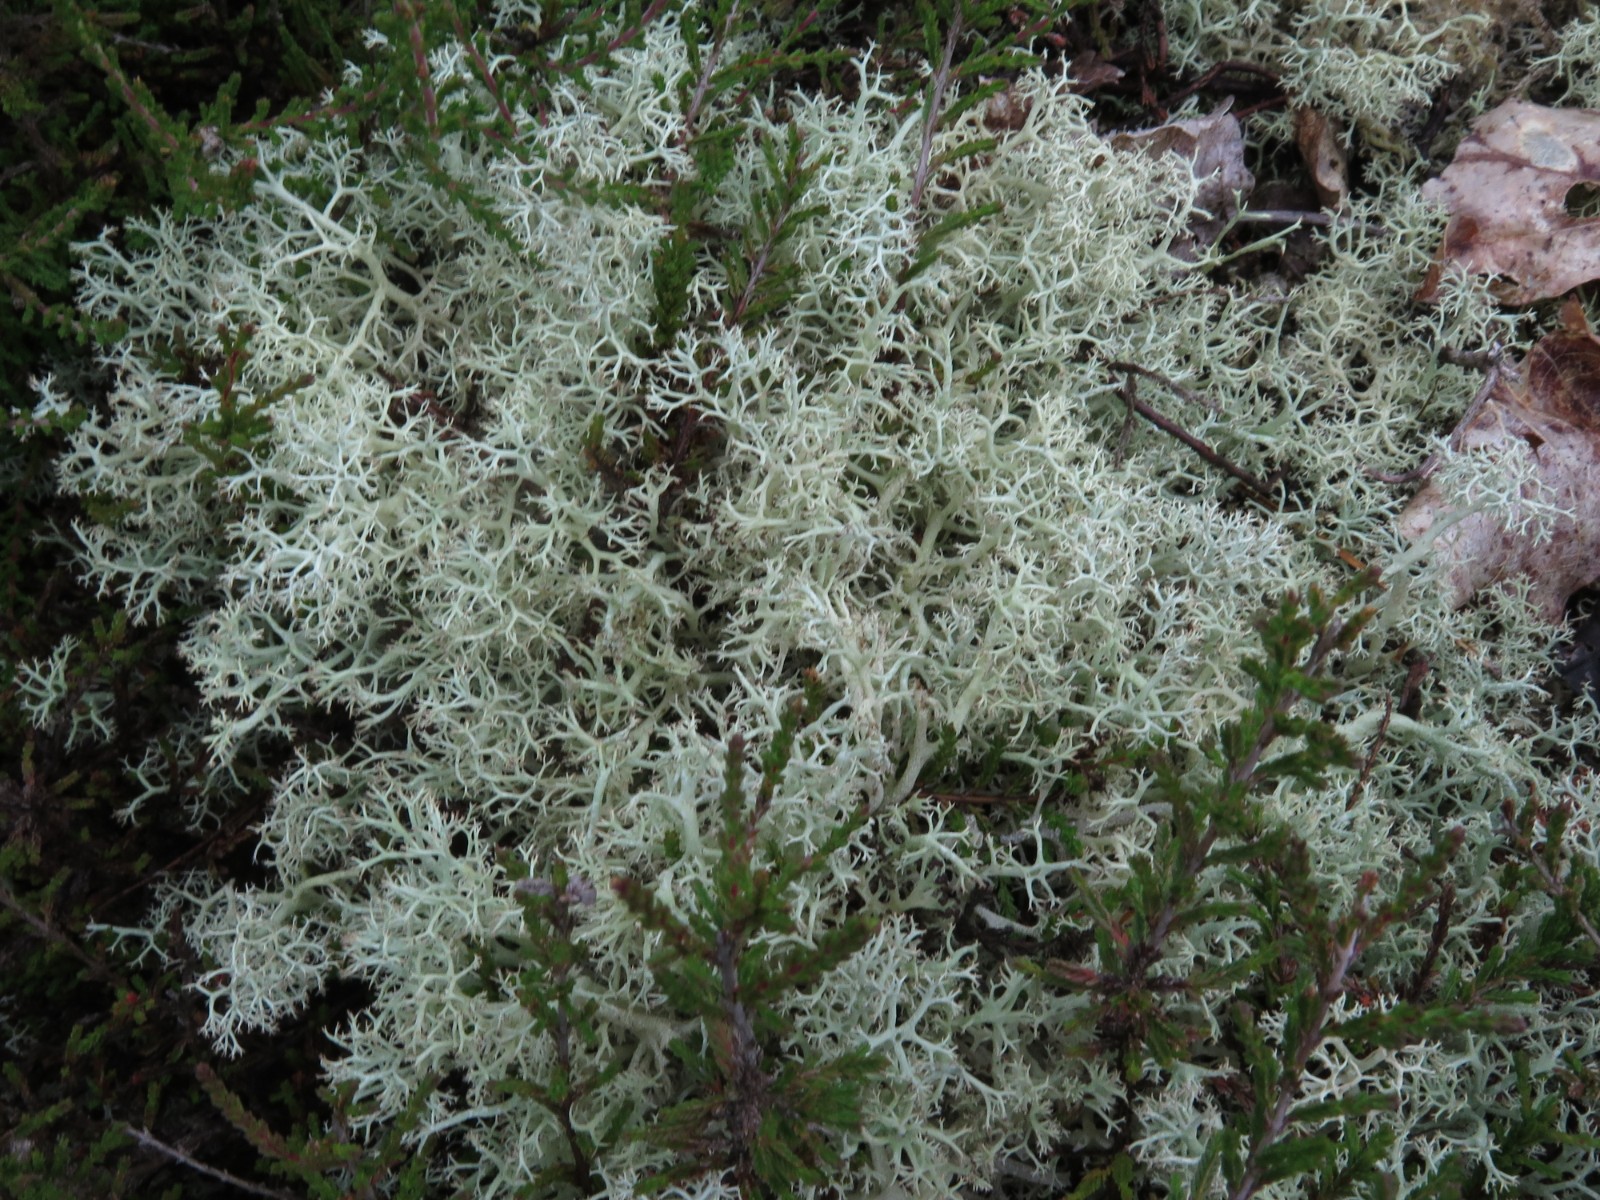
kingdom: Fungi
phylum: Ascomycota
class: Lecanoromycetes
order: Lecanorales
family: Cladoniaceae
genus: Cladonia
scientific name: Cladonia portentosa
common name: hede-rensdyrlav
